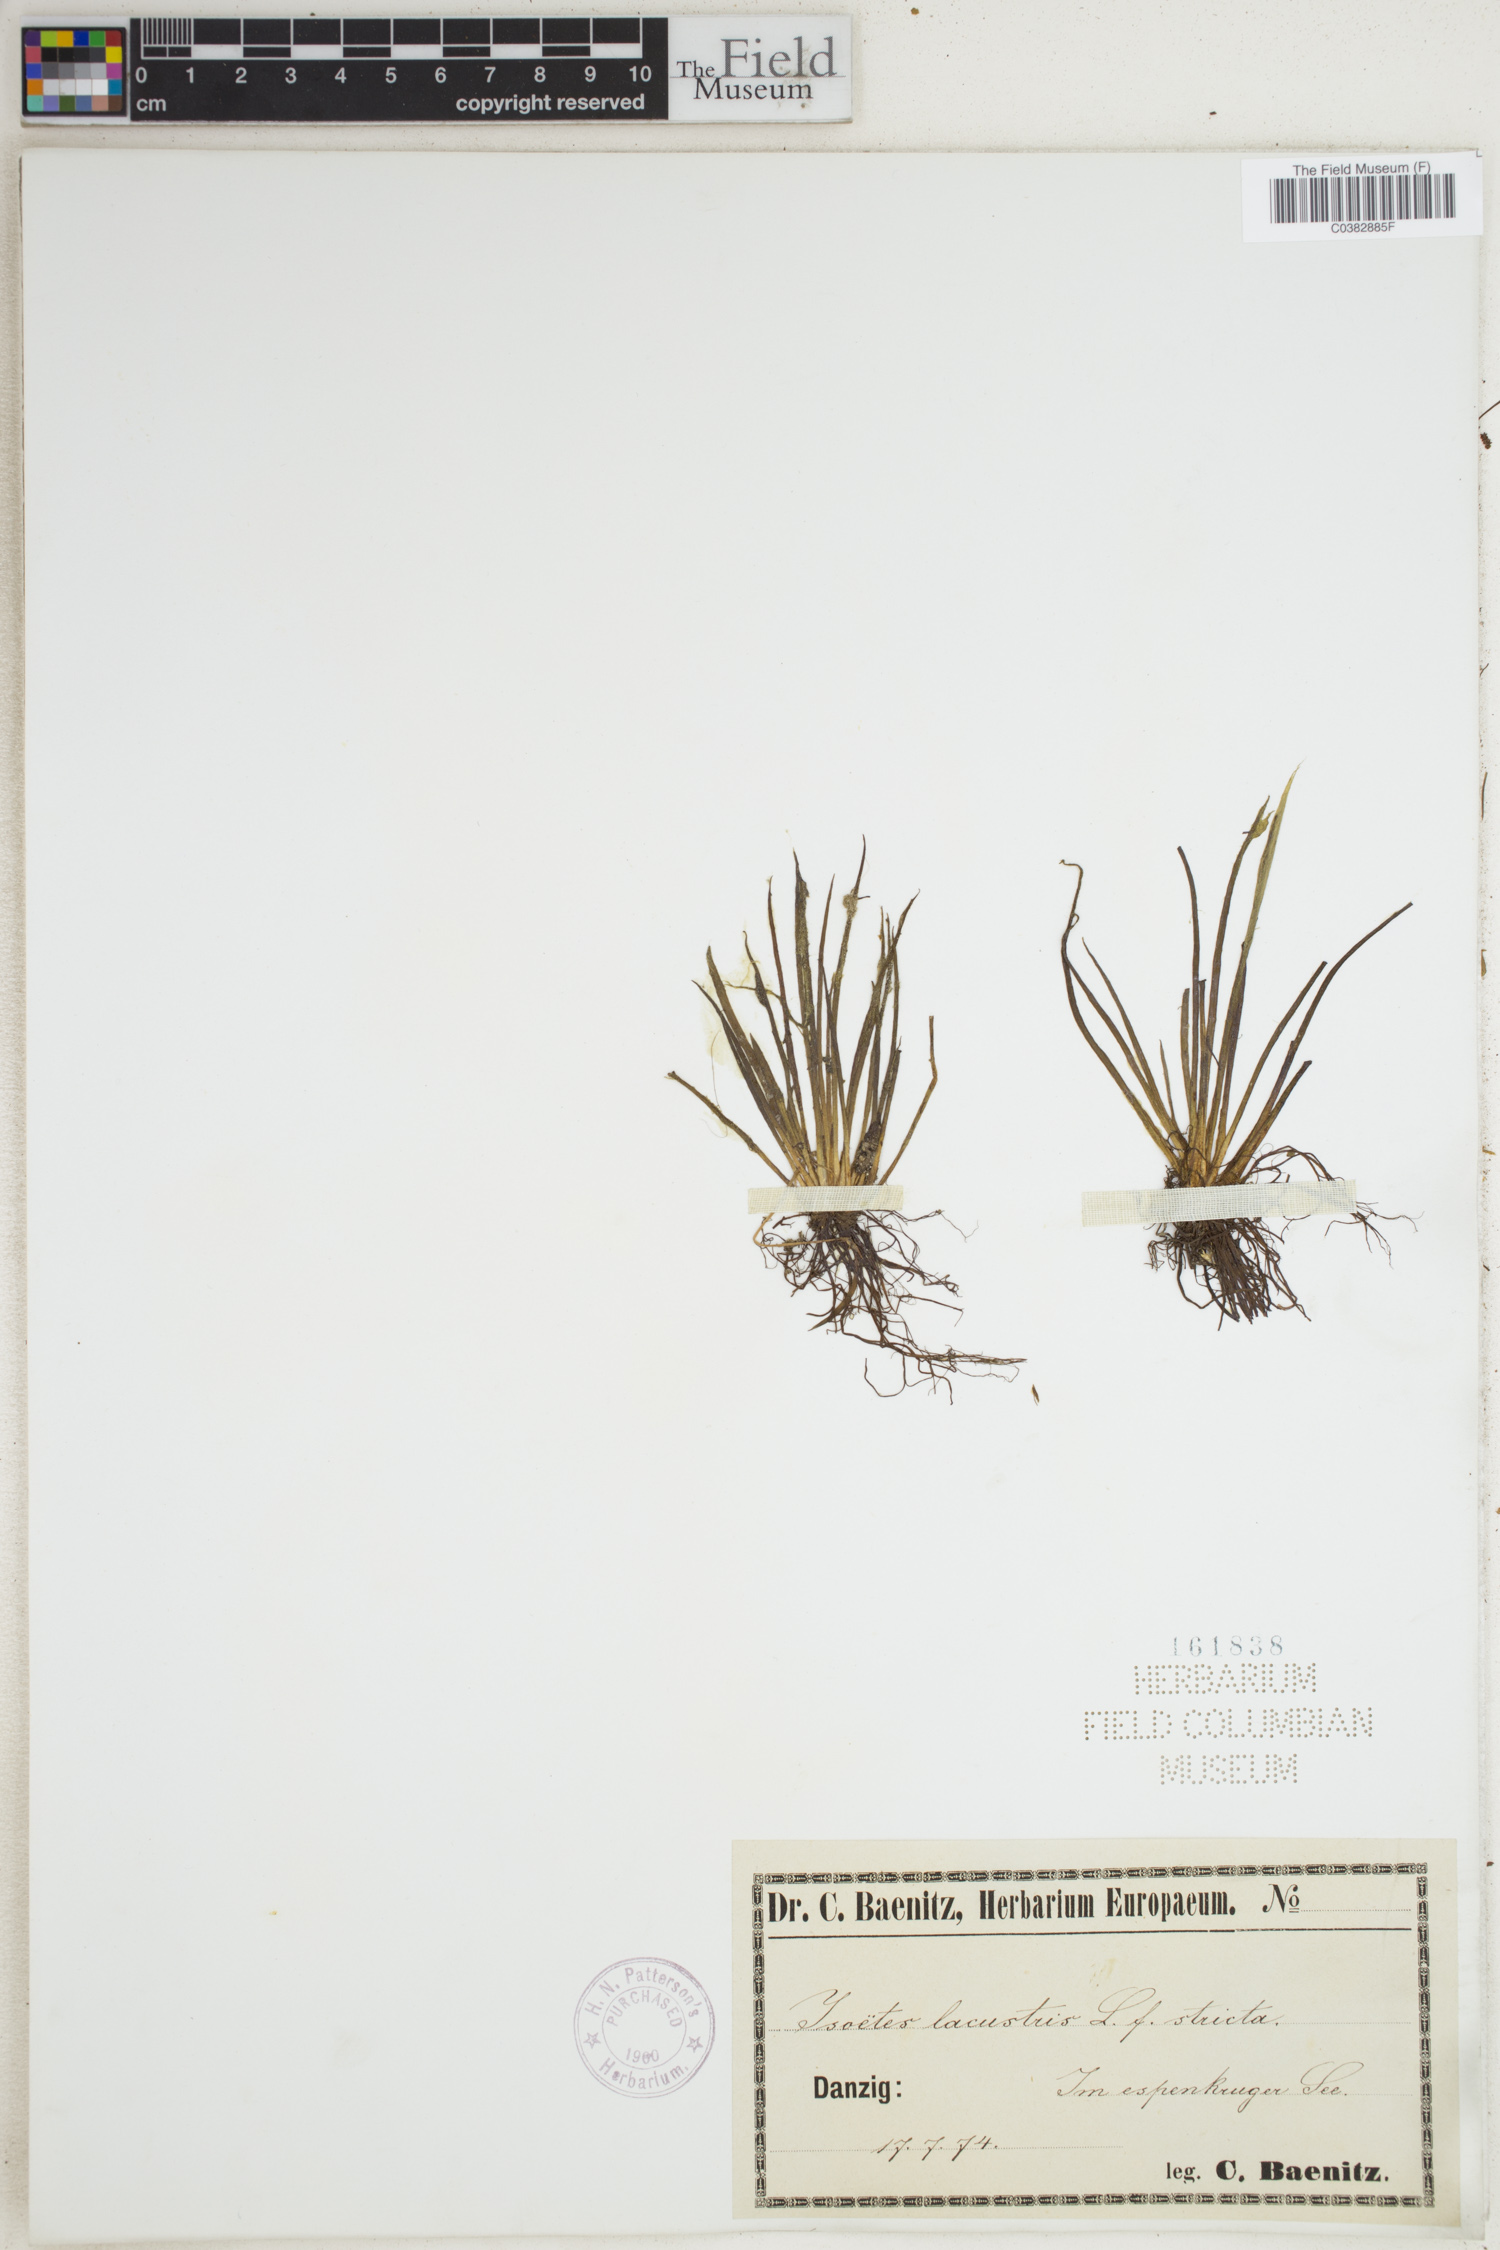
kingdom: Plantae
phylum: Tracheophyta
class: Lycopodiopsida
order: Isoetales
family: Isoetaceae
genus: Isoetes
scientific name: Isoetes lacustris
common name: Common quillwort
